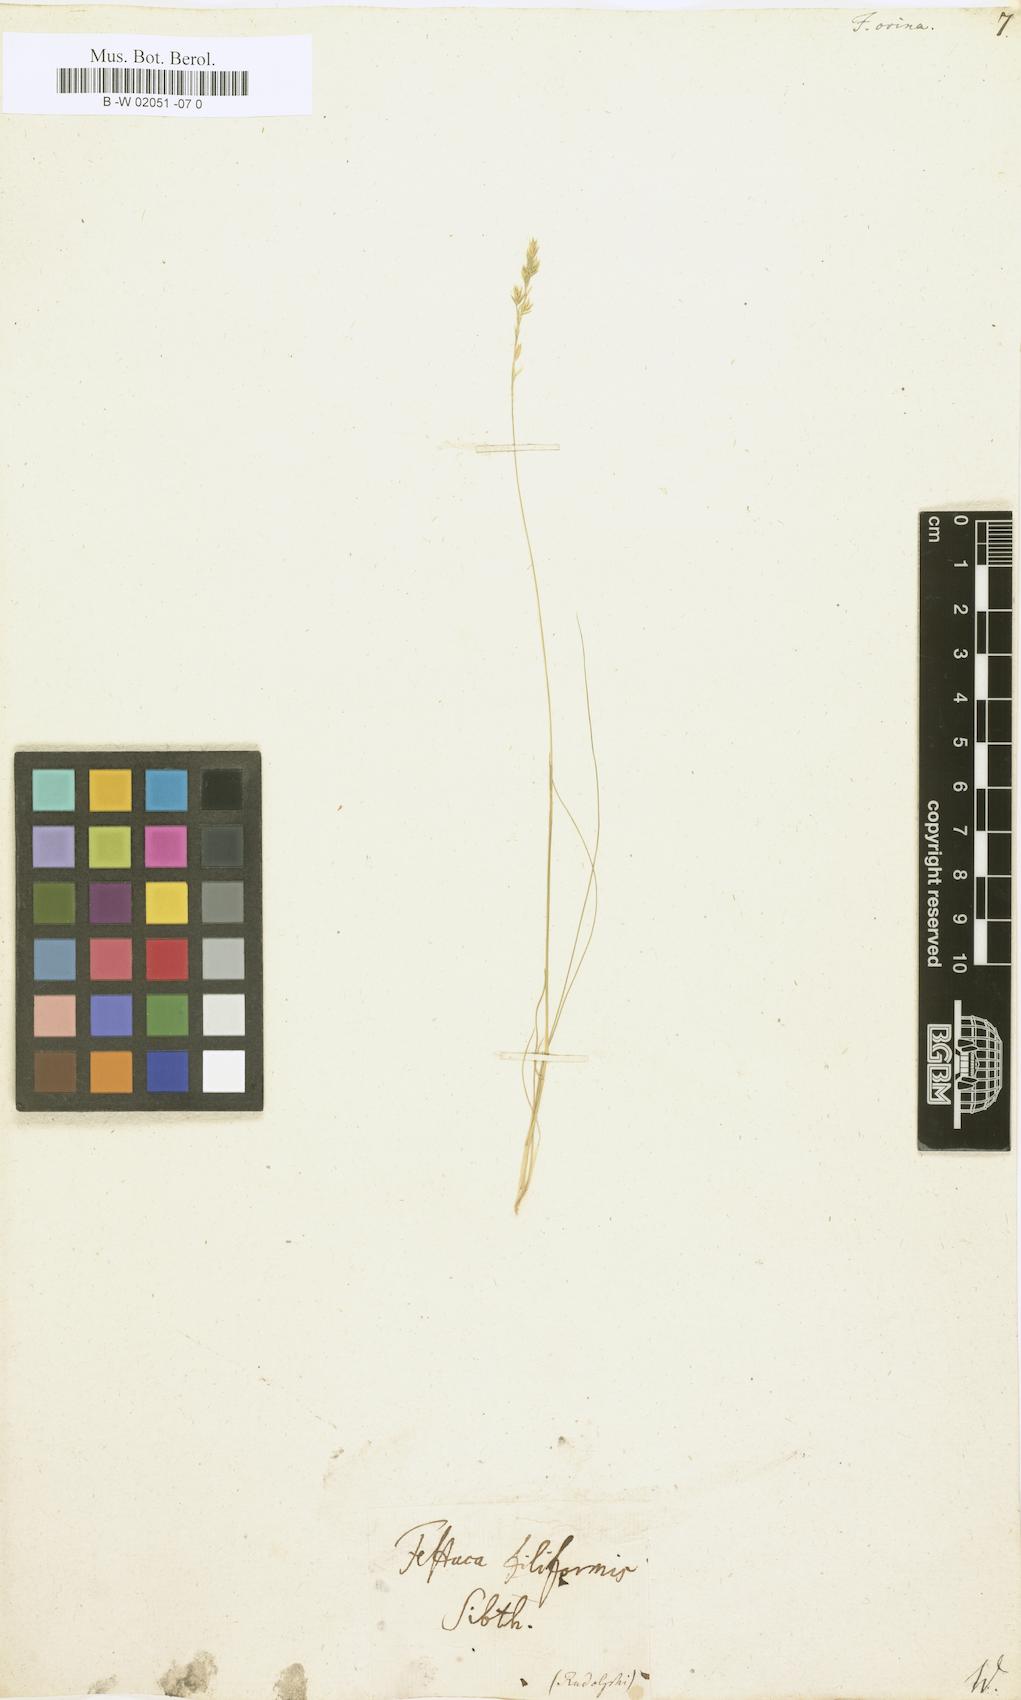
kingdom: Plantae
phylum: Tracheophyta
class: Liliopsida
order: Poales
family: Poaceae
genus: Festuca
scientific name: Festuca ovina
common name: Sheep fescue
